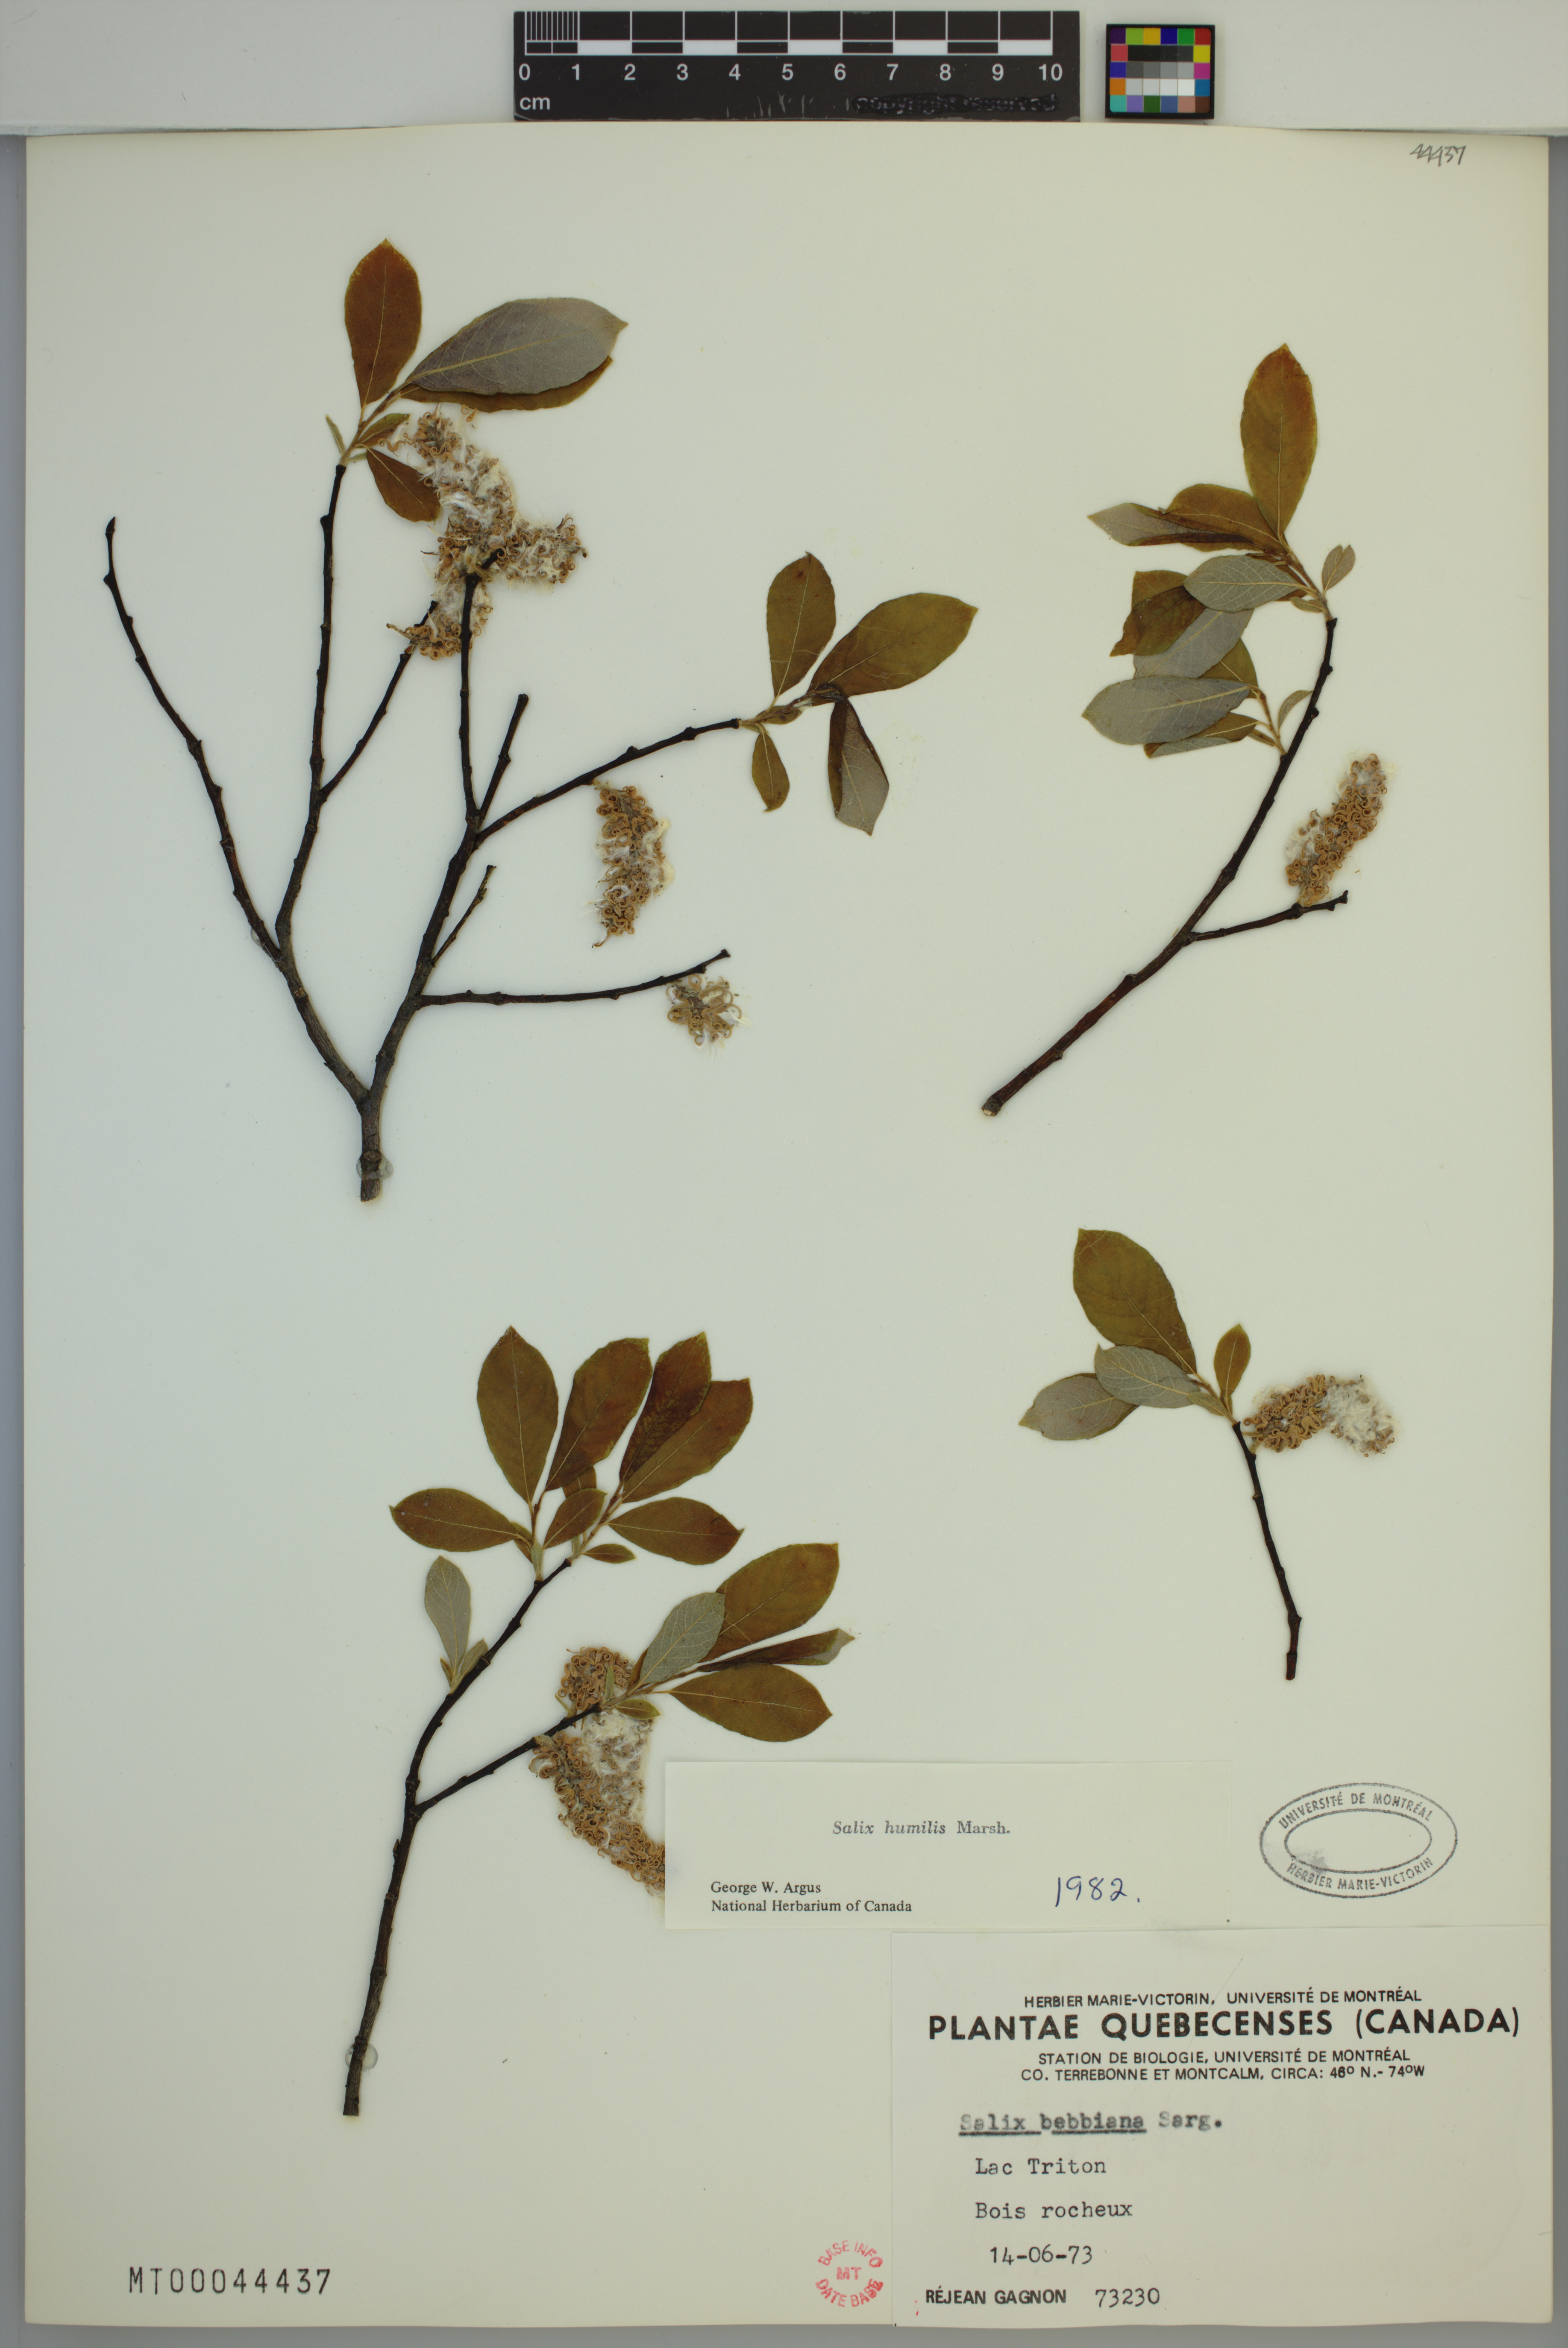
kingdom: Plantae
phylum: Tracheophyta
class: Magnoliopsida
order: Malpighiales
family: Salicaceae
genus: Salix
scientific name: Salix humilis
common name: Prairie willow
